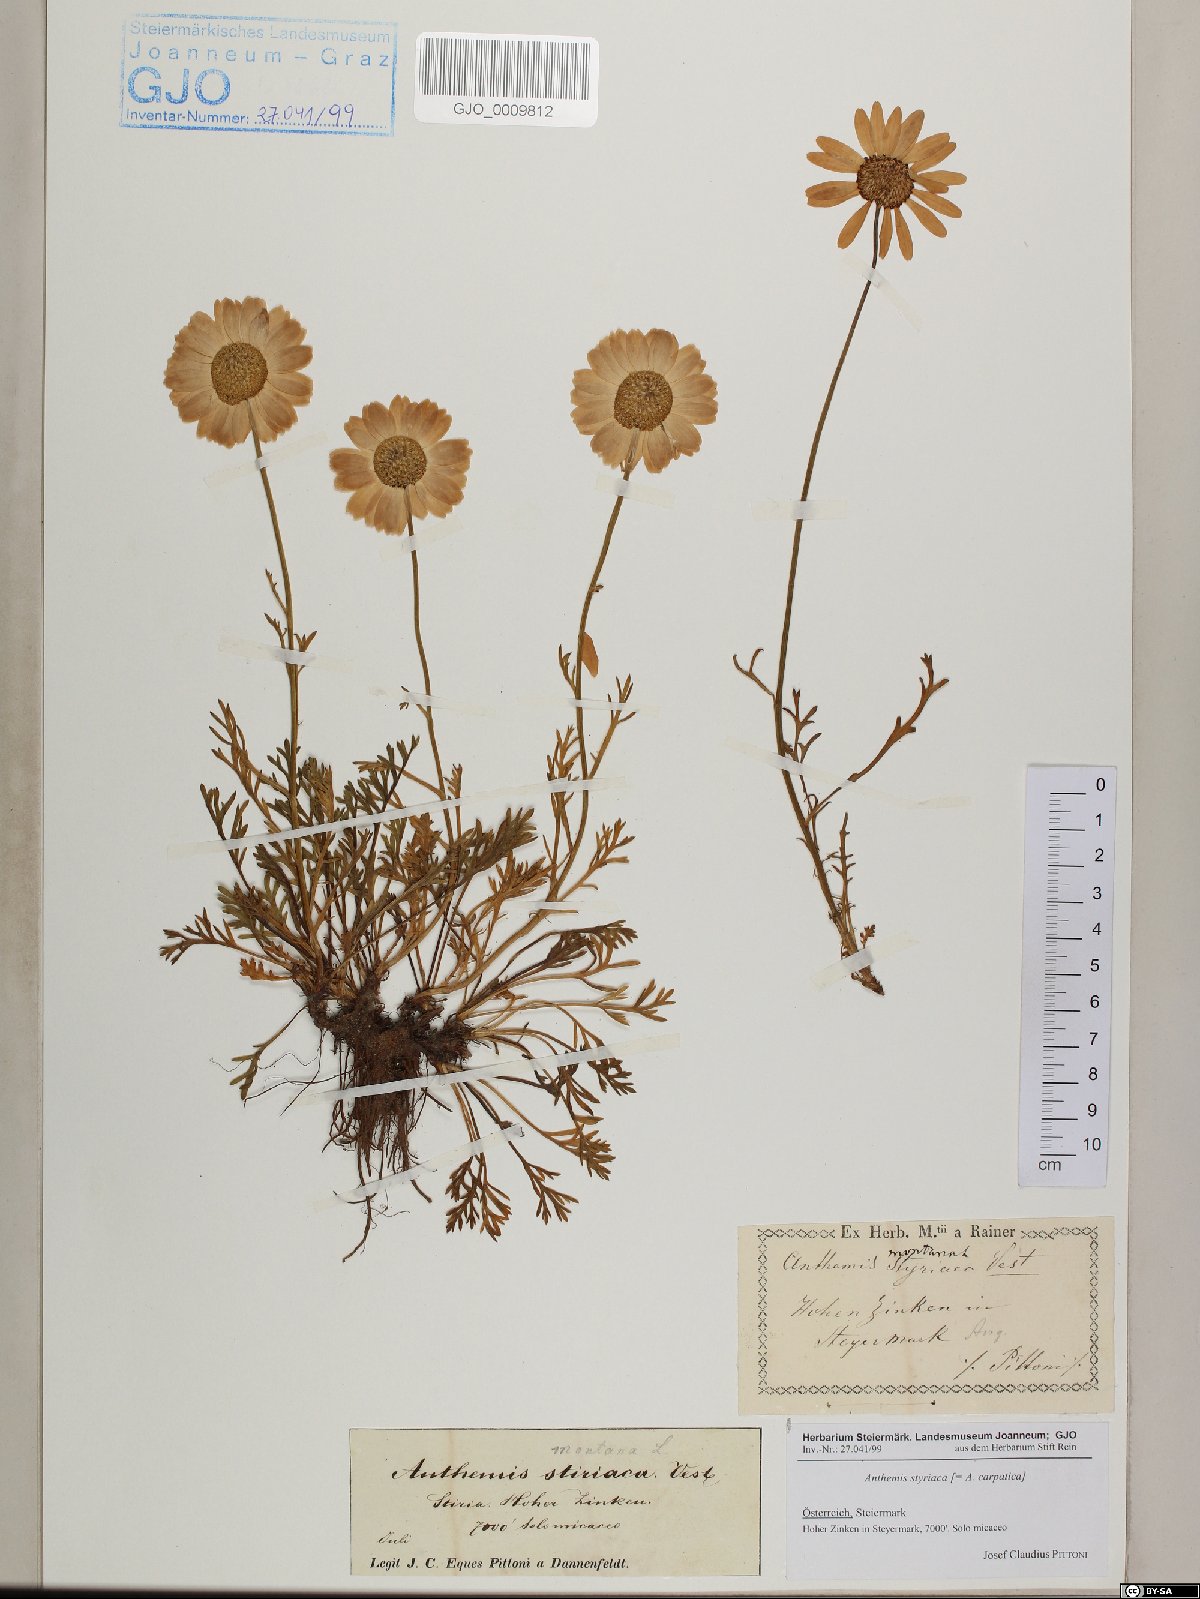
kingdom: Plantae
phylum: Tracheophyta
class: Magnoliopsida
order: Asterales
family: Asteraceae
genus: Anthemis
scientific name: Anthemis cretica
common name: Mountain dog-daisy
